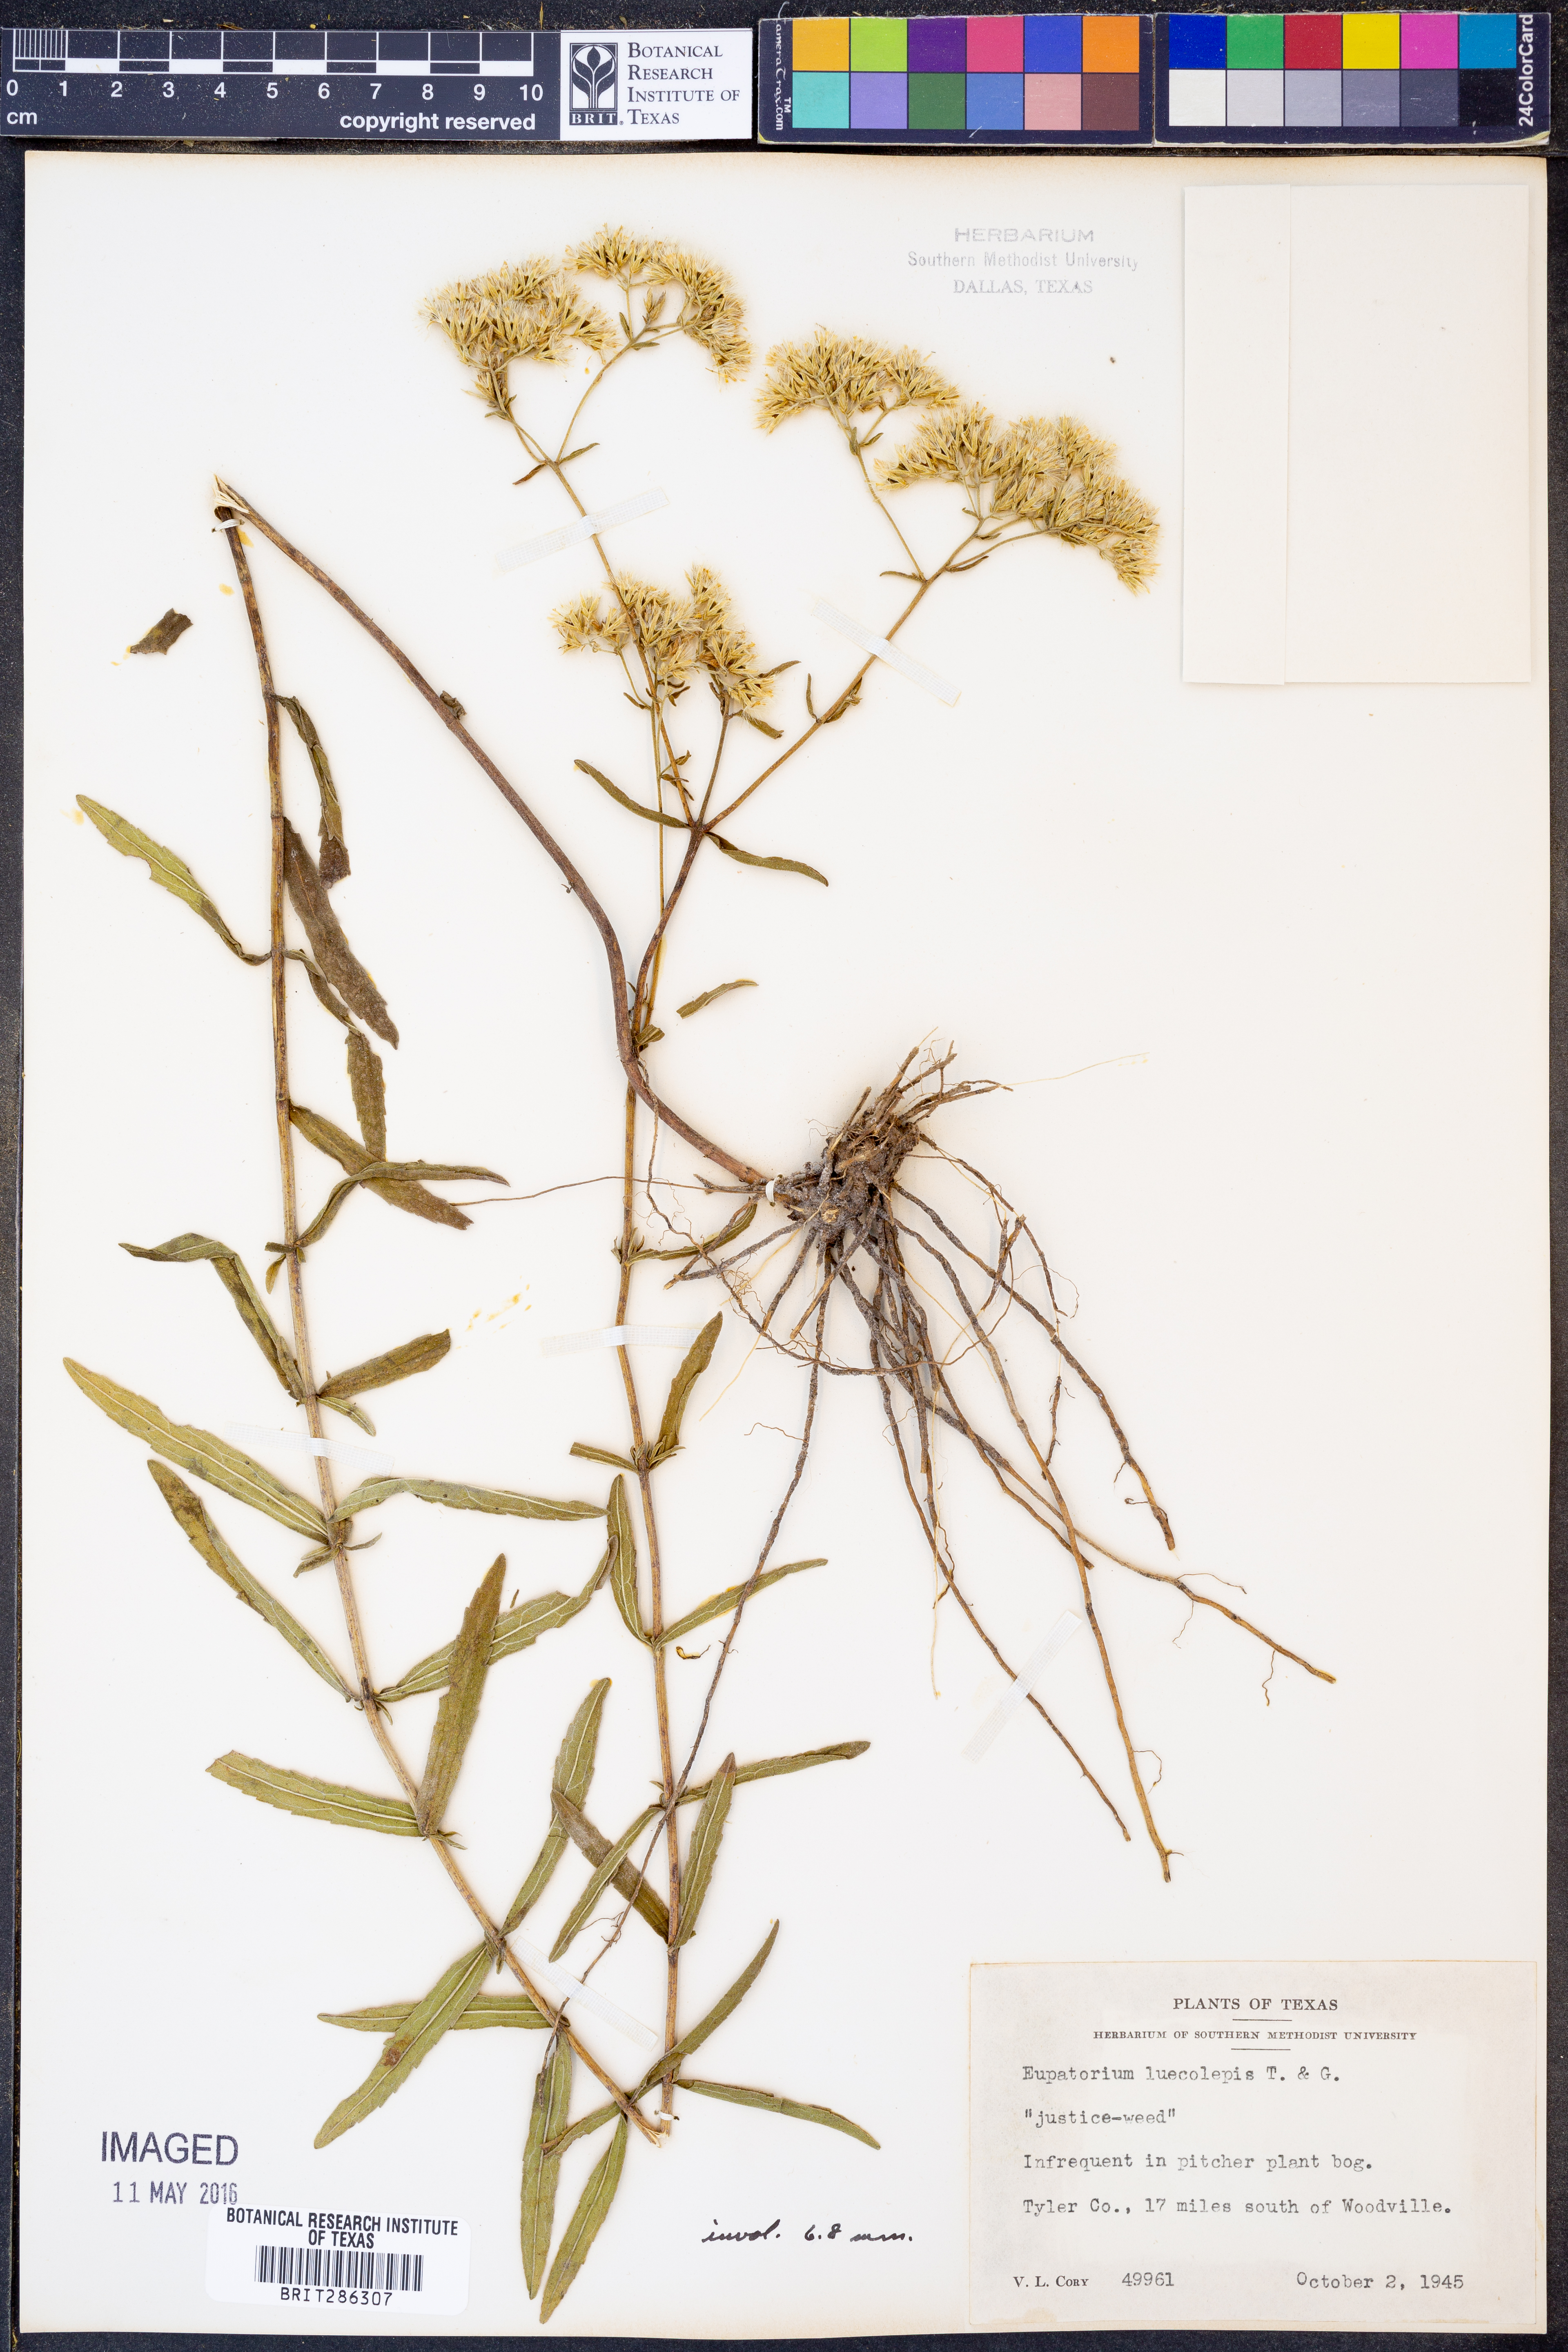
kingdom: Plantae
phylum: Tracheophyta
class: Magnoliopsida
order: Asterales
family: Asteraceae
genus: Eupatorium
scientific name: Eupatorium leucolepis
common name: Justiceweed
